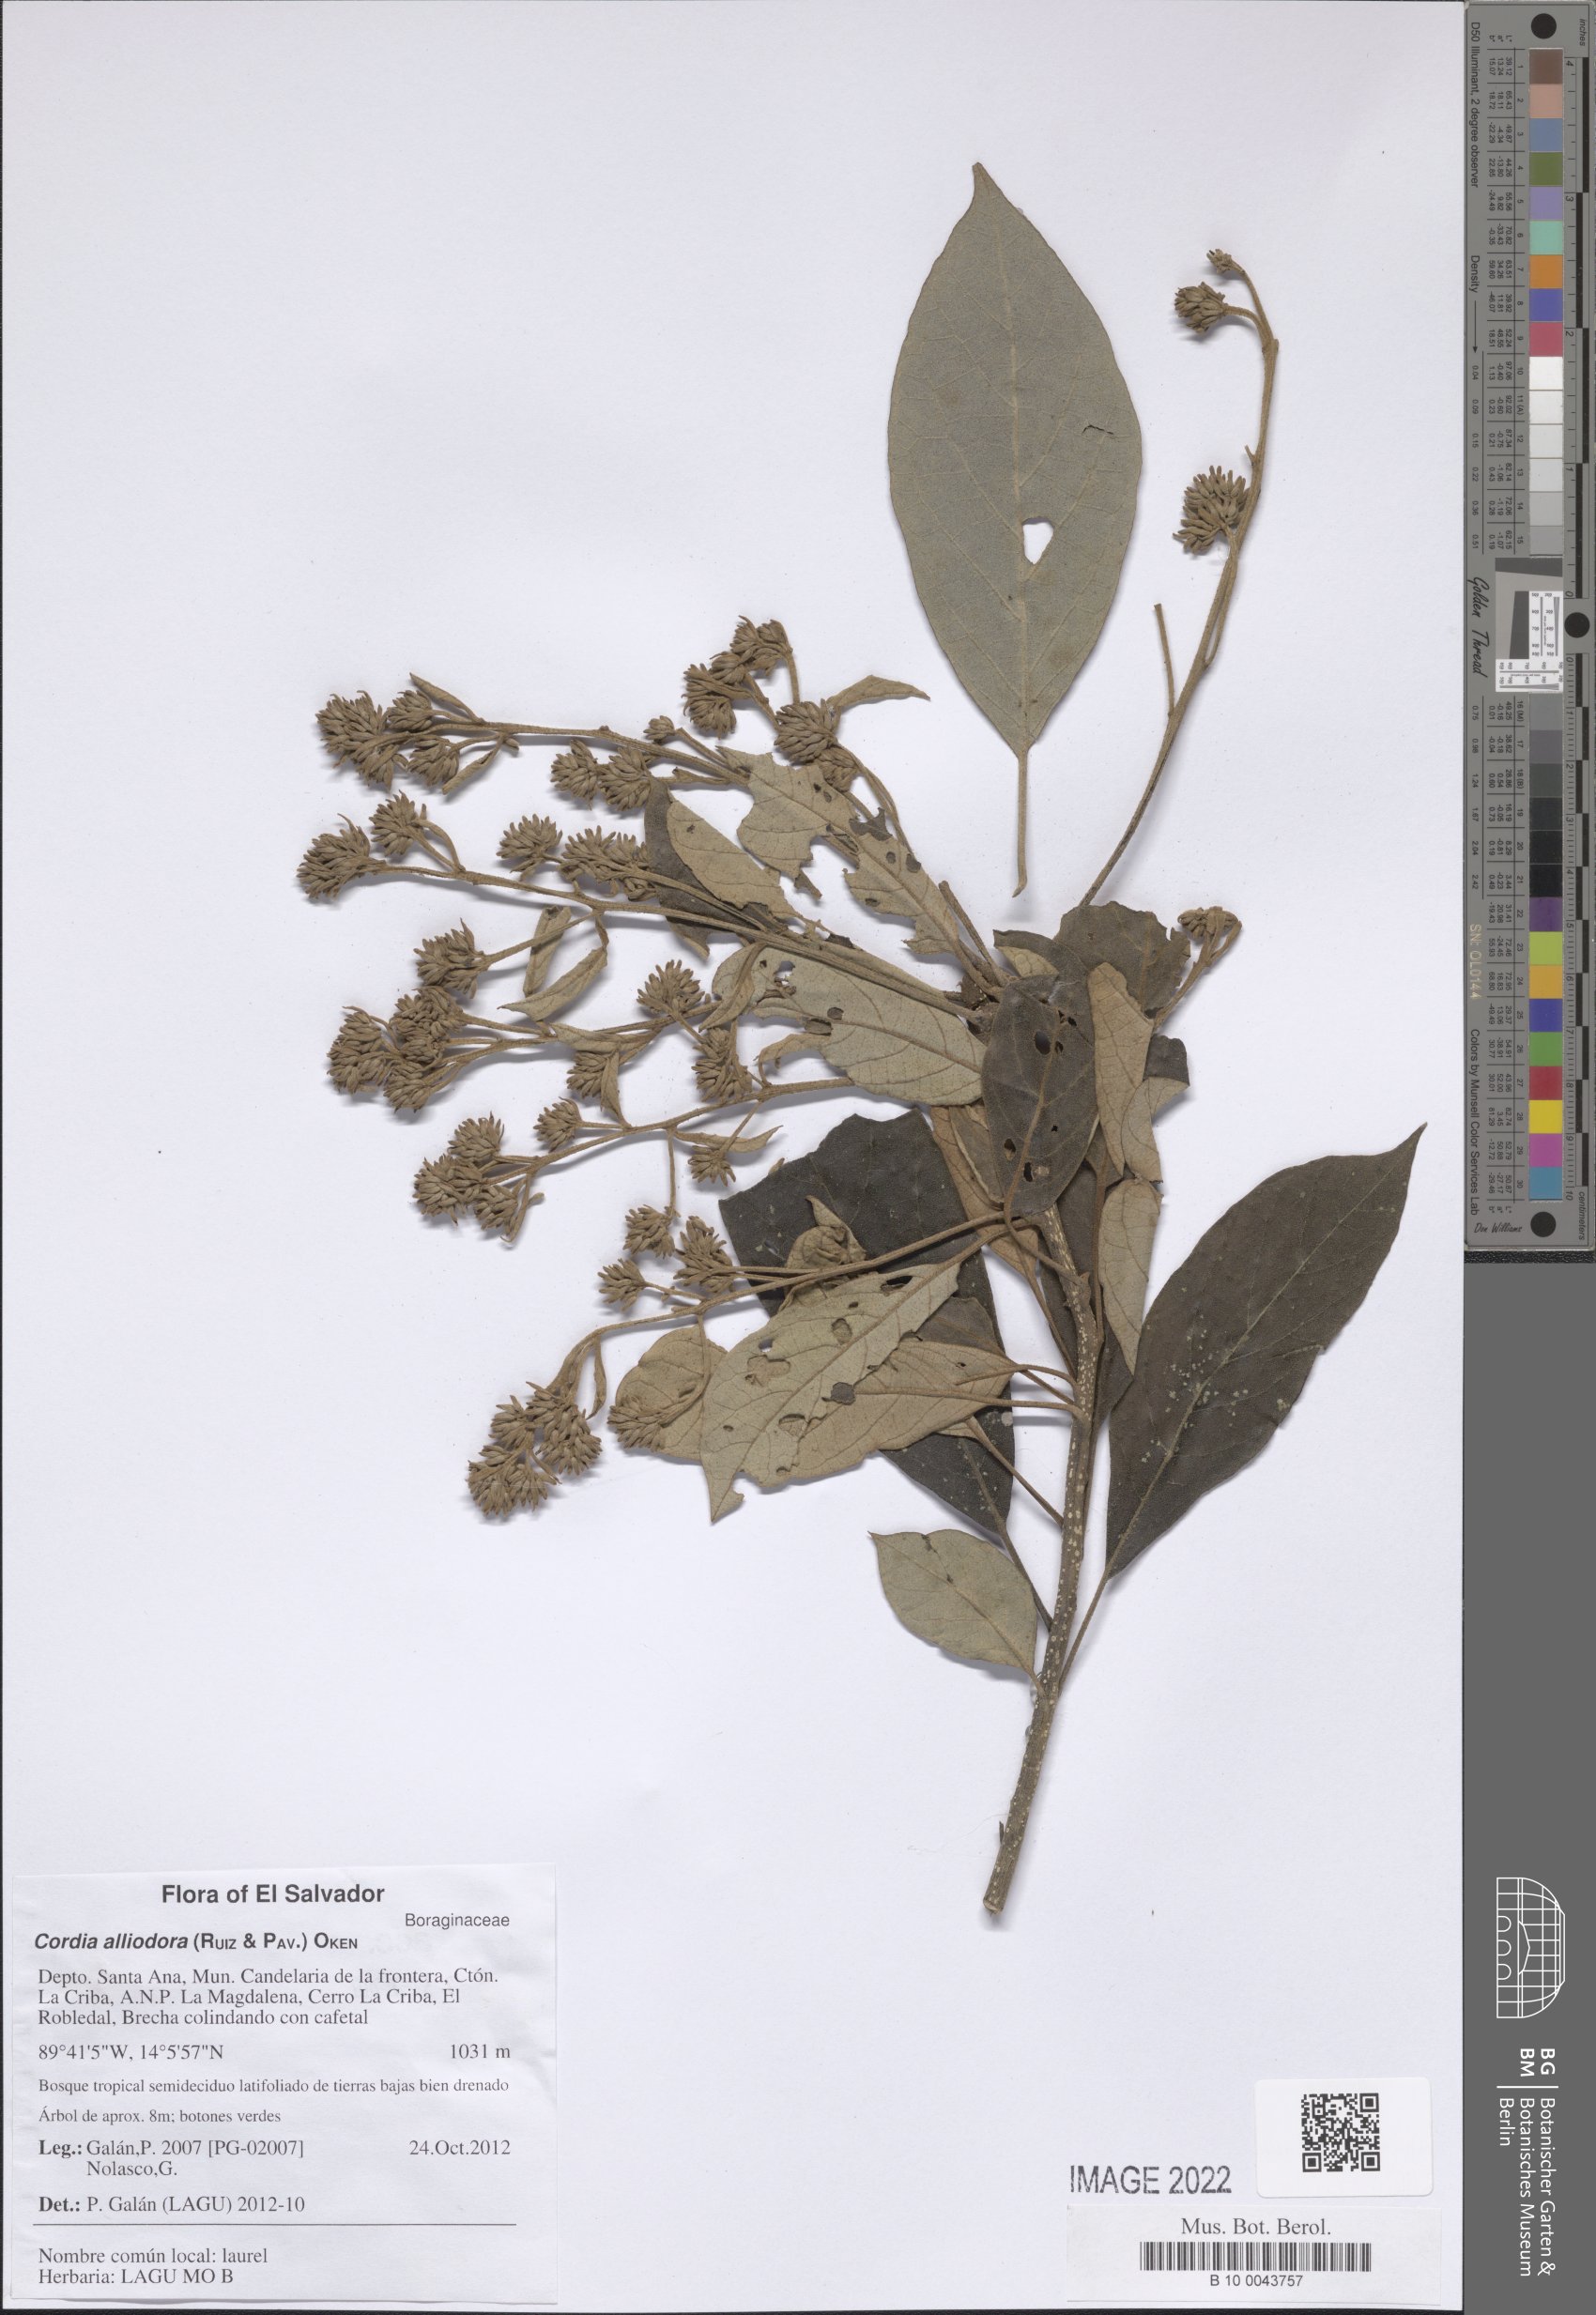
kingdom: Plantae
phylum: Tracheophyta
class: Magnoliopsida
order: Boraginales
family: Cordiaceae
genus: Cordia
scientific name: Cordia alliodora
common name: Spanish elm
